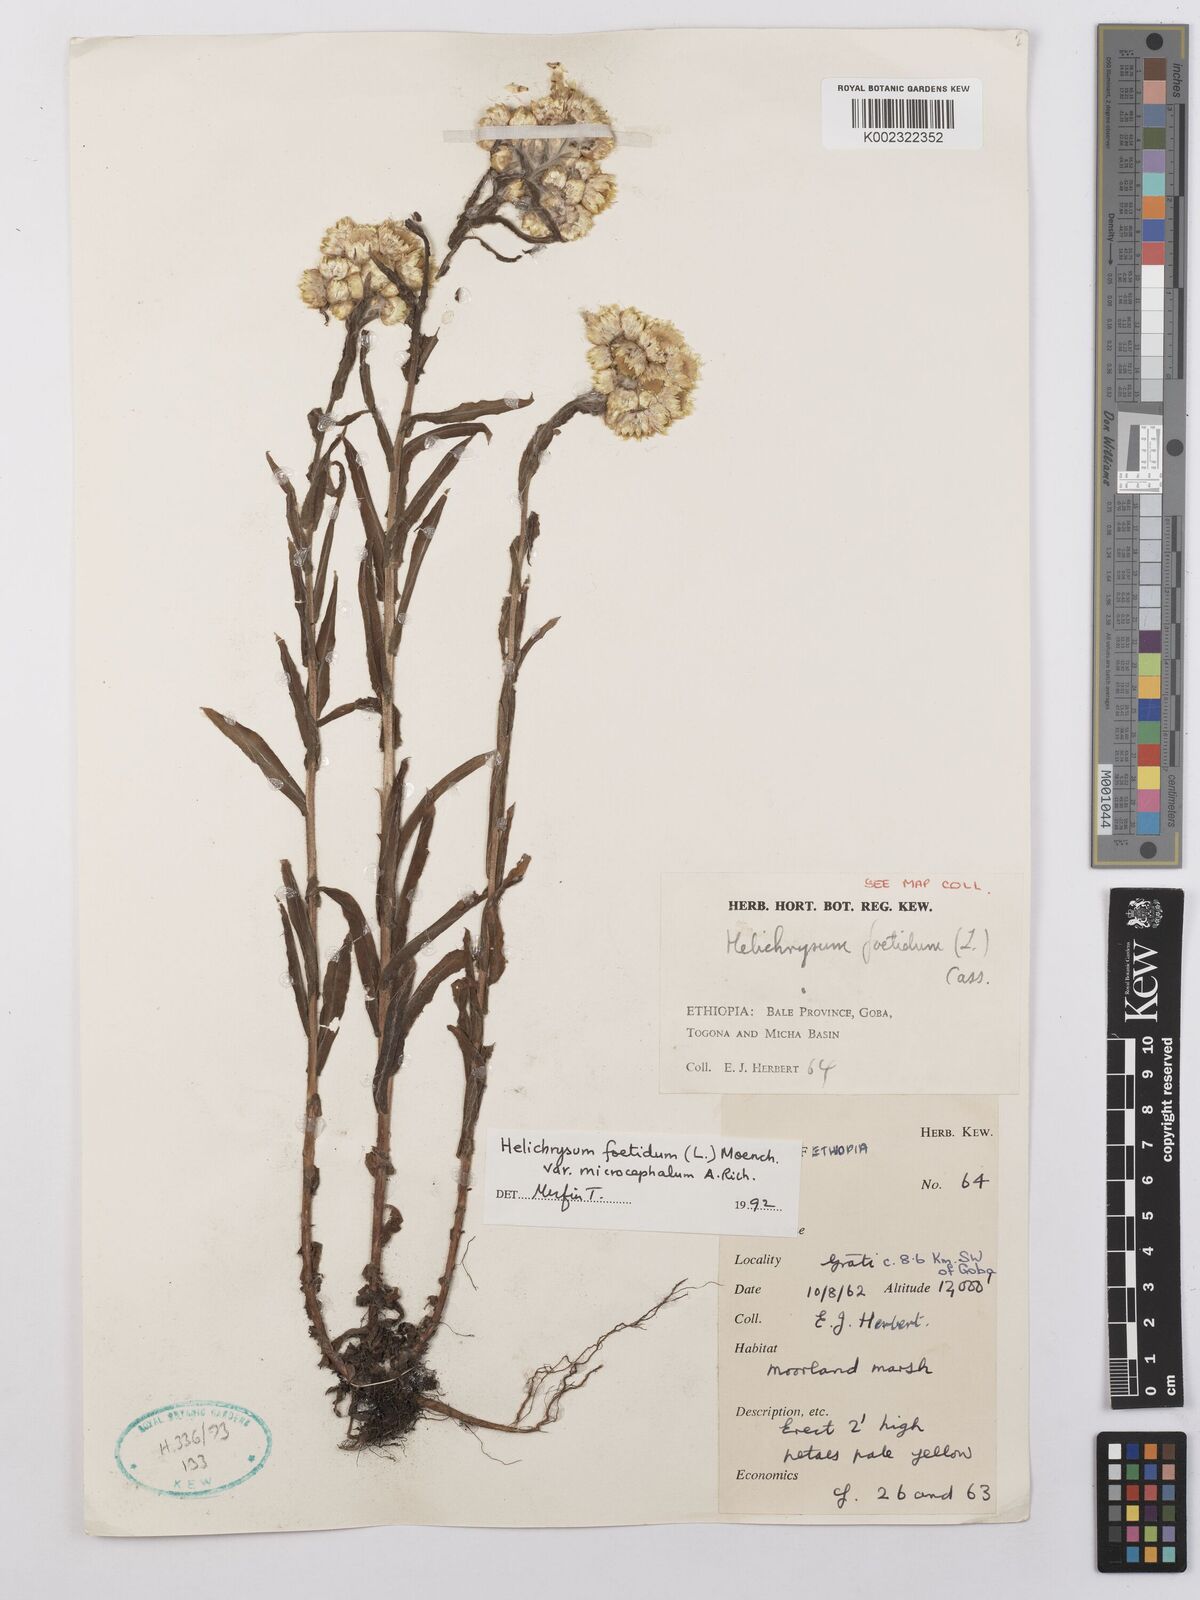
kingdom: Plantae
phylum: Tracheophyta
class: Magnoliopsida
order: Asterales
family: Asteraceae
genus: Helichrysum
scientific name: Helichrysum foetidum
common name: Stinking everlasting
